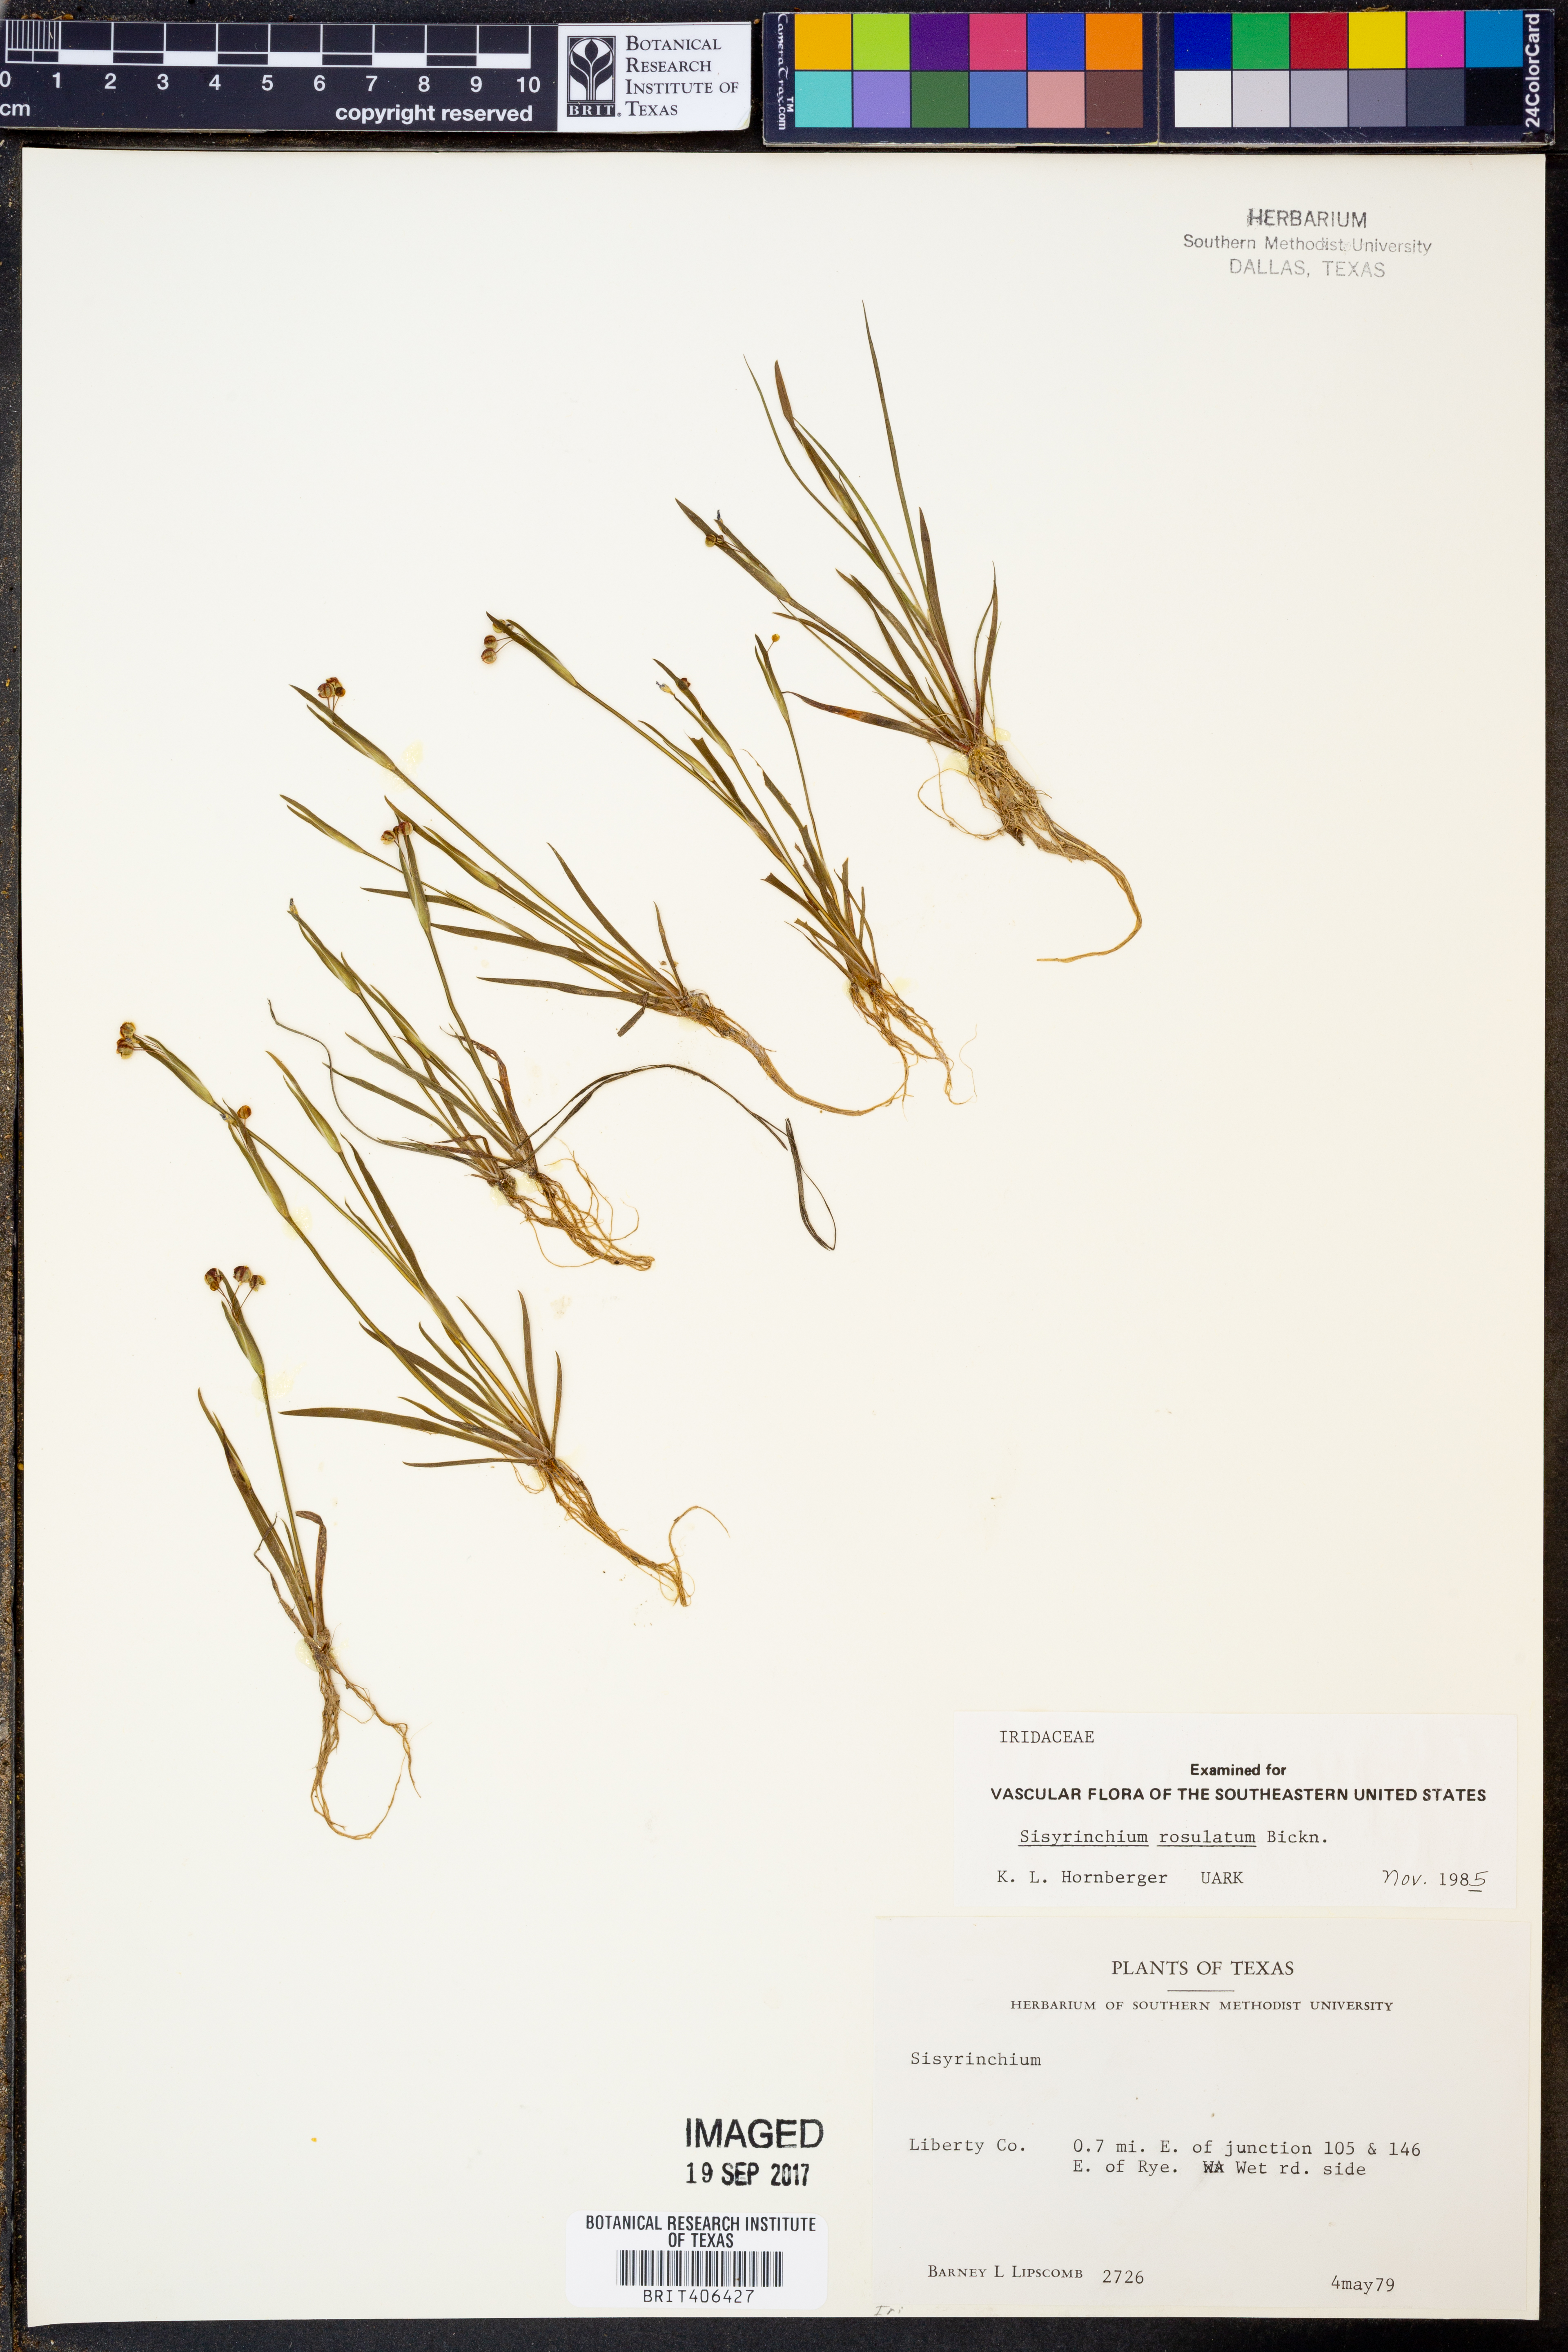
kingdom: Plantae
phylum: Tracheophyta
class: Liliopsida
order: Asparagales
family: Iridaceae
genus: Sisyrinchium
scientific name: Sisyrinchium rosulatum
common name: Annual blue-eyed grass
